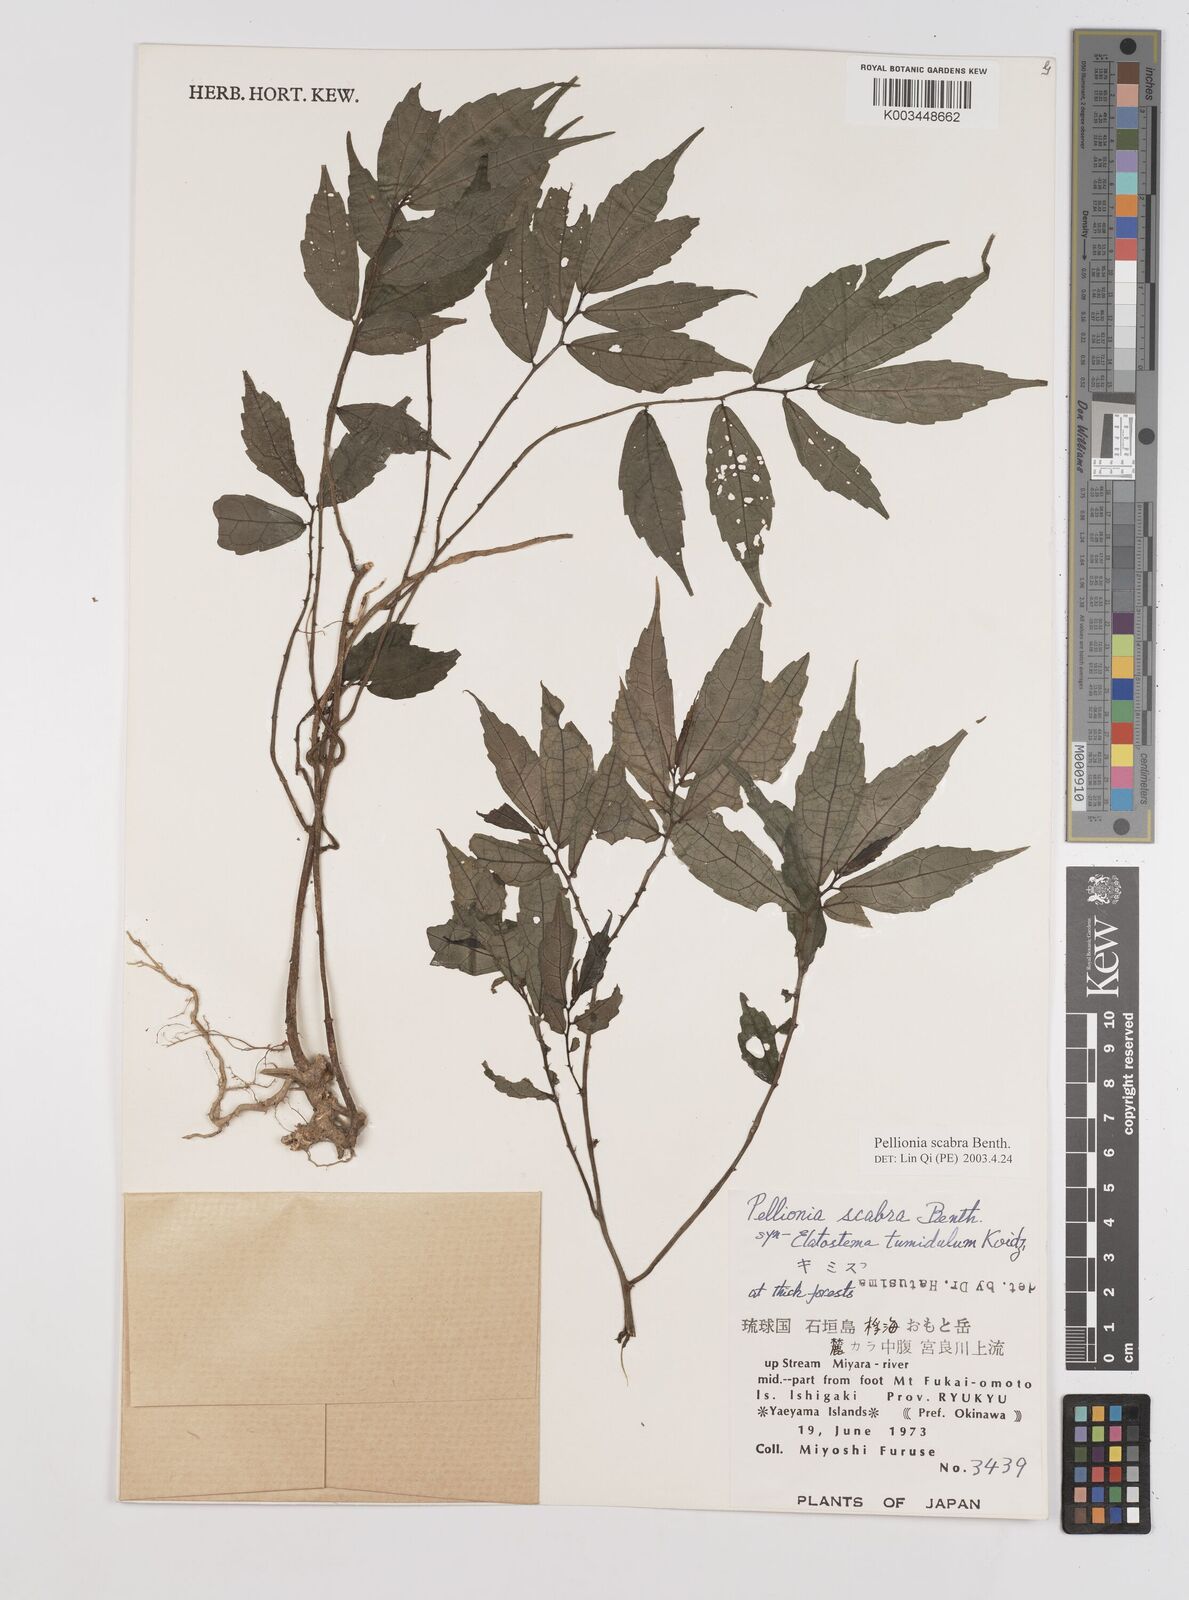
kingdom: Plantae
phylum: Tracheophyta
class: Magnoliopsida
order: Rosales
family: Urticaceae
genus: Elatostema
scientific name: Elatostema
